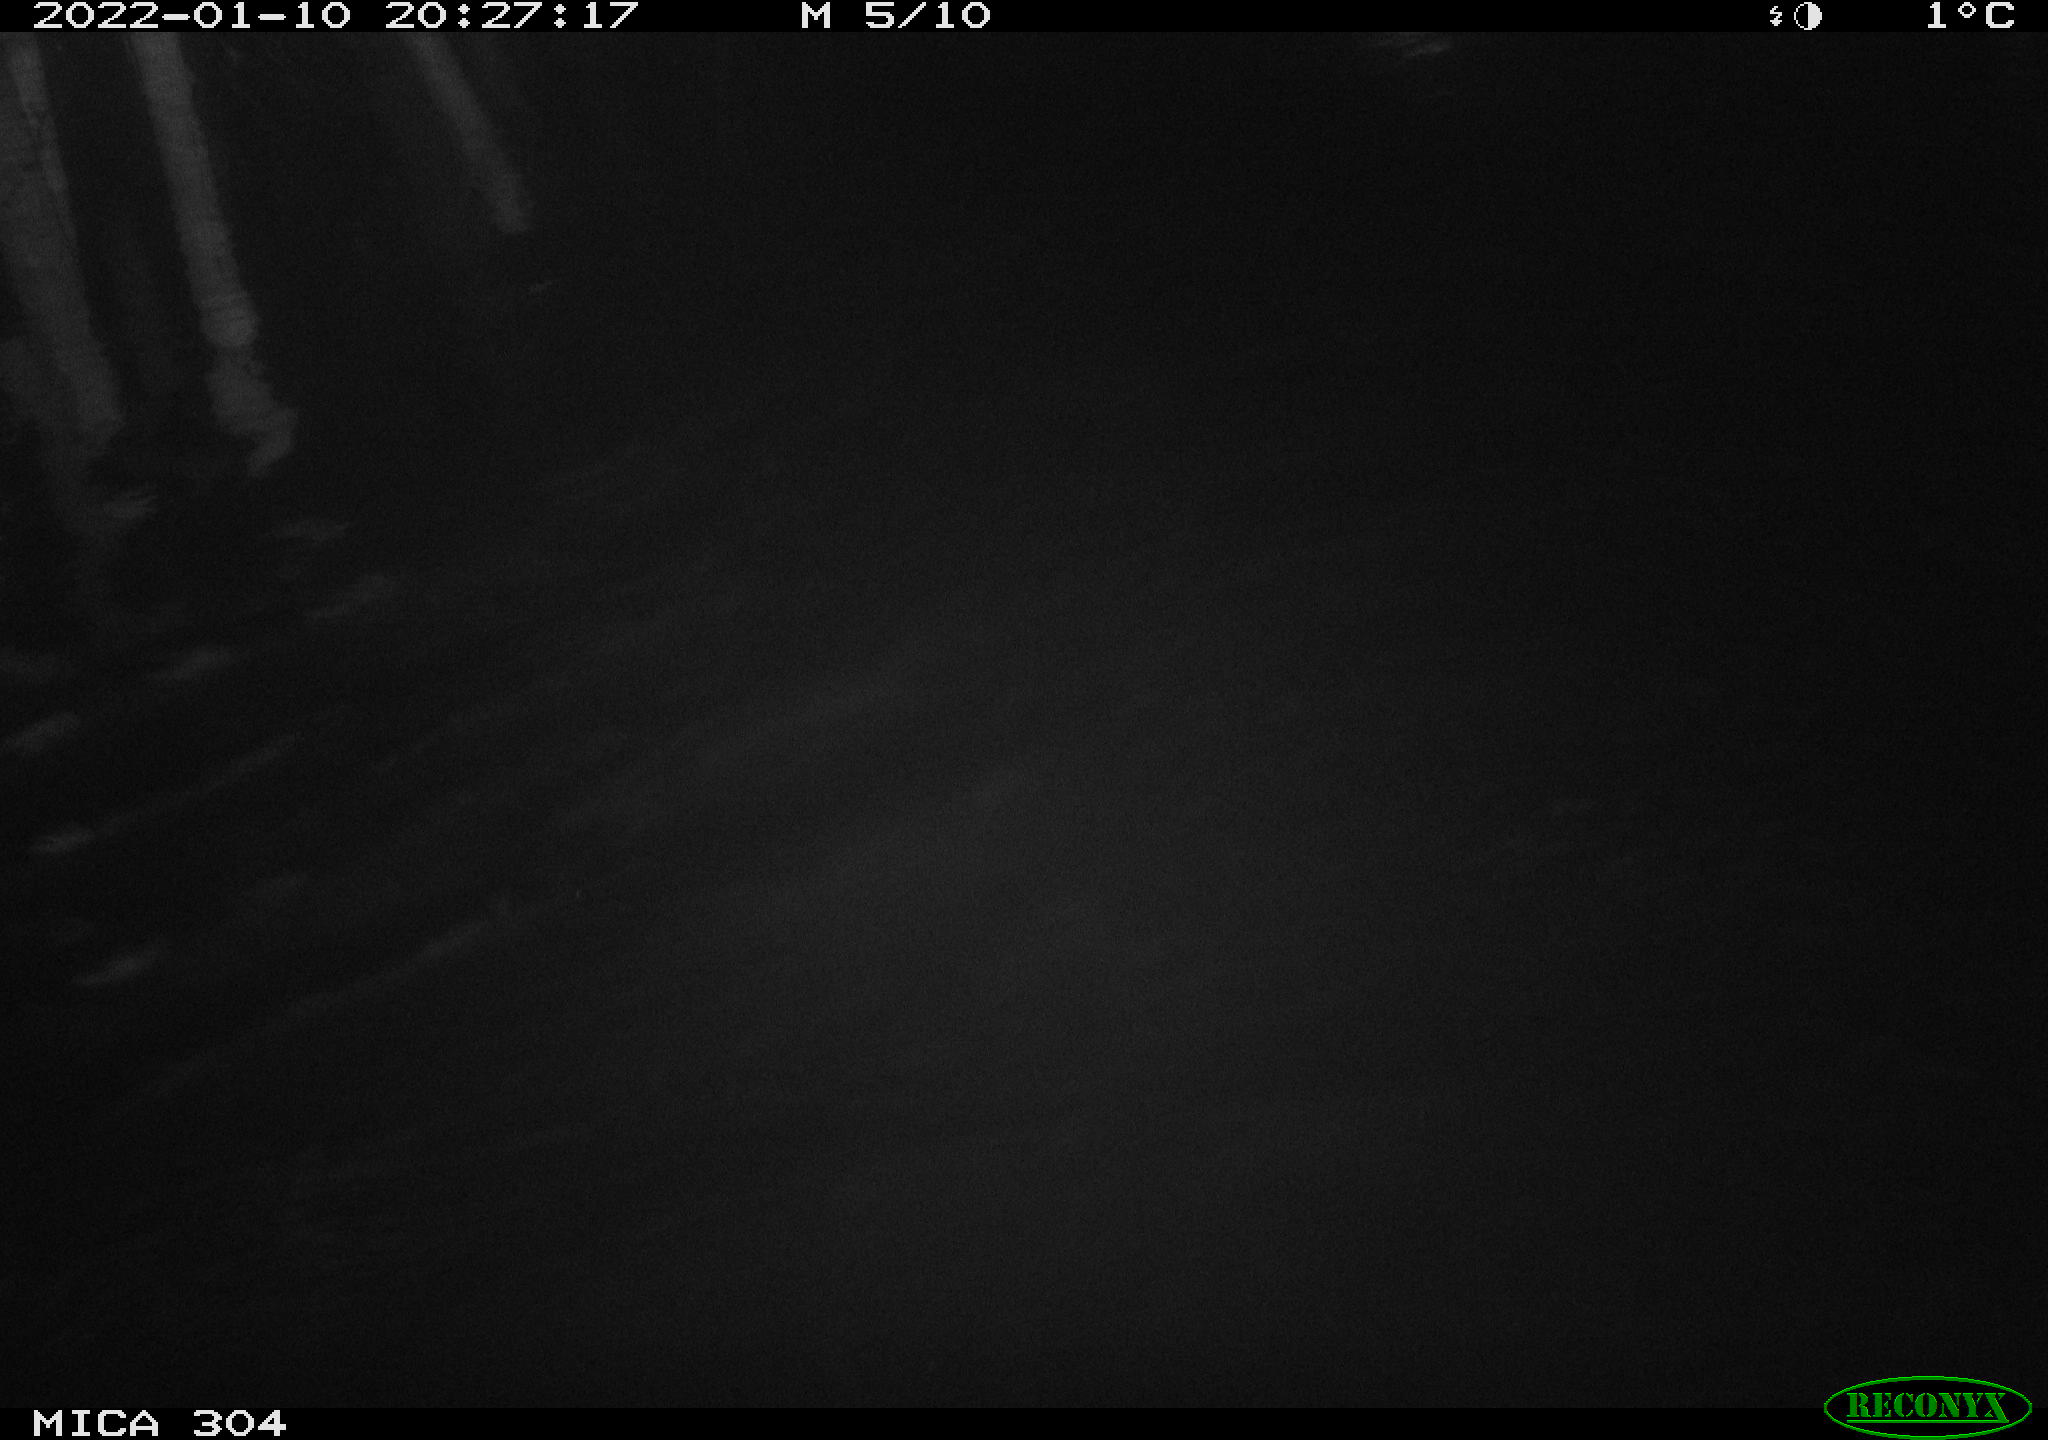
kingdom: Animalia
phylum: Chordata
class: Aves
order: Anseriformes
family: Anatidae
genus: Anas
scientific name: Anas
